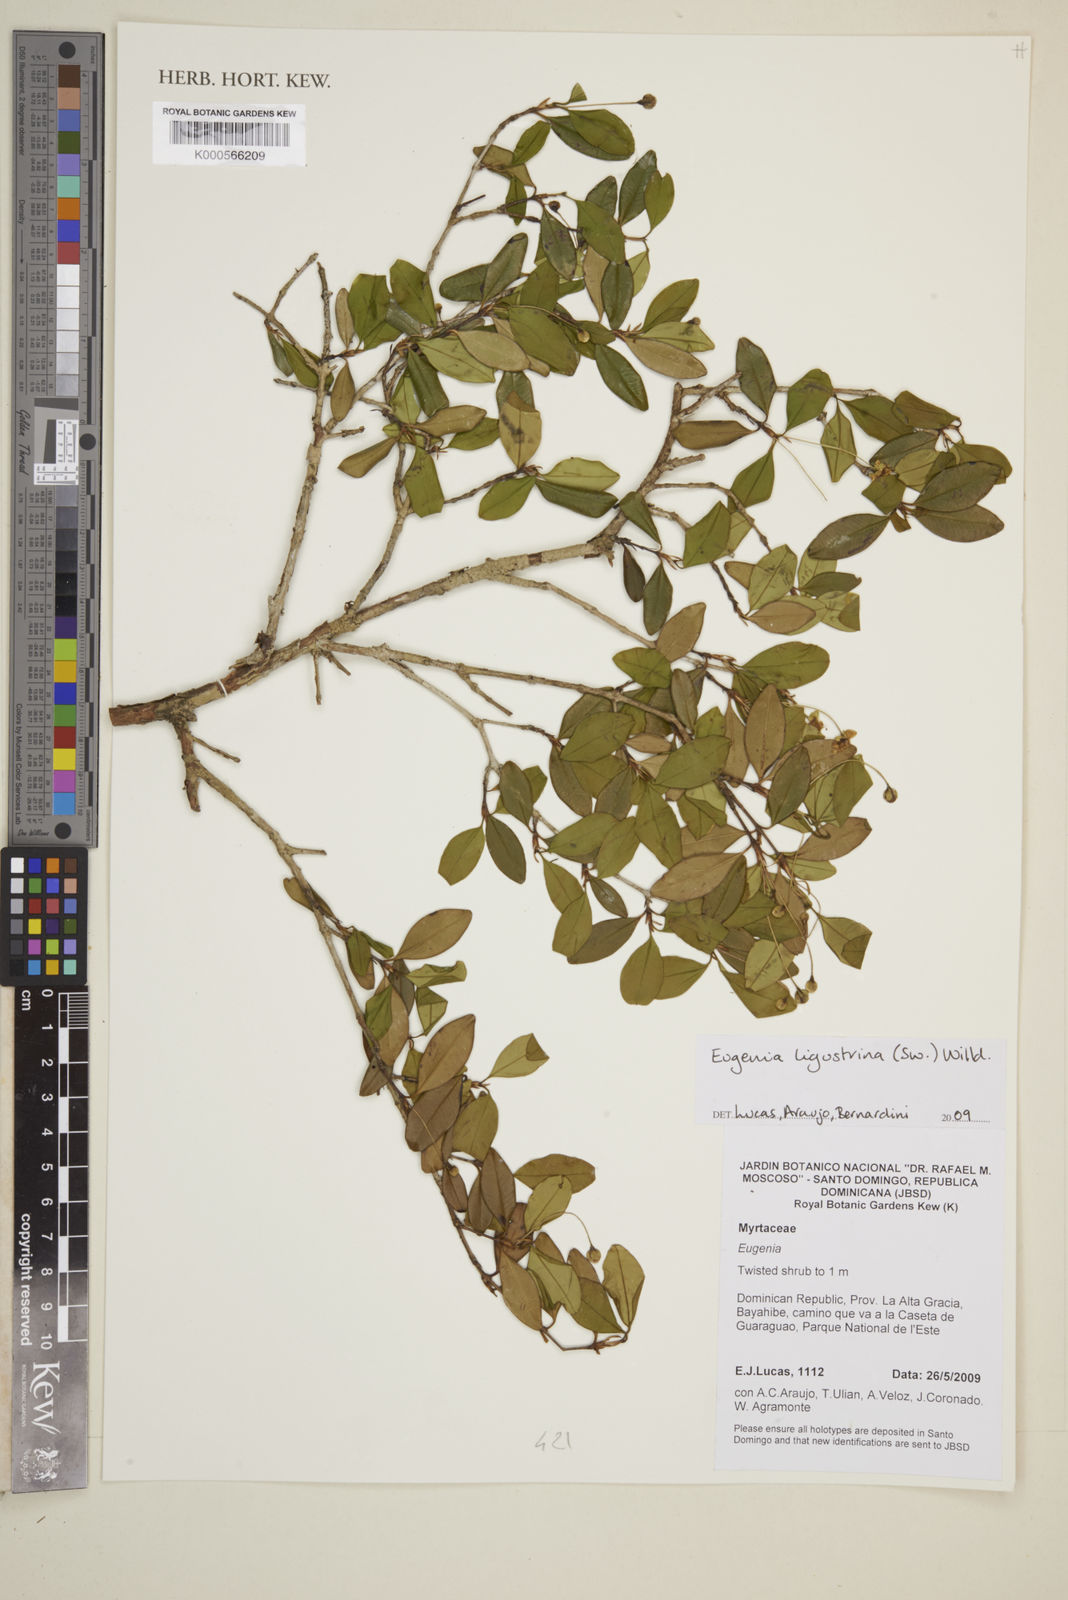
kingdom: Plantae
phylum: Tracheophyta
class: Magnoliopsida
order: Myrtales
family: Myrtaceae
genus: Eugenia
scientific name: Eugenia
